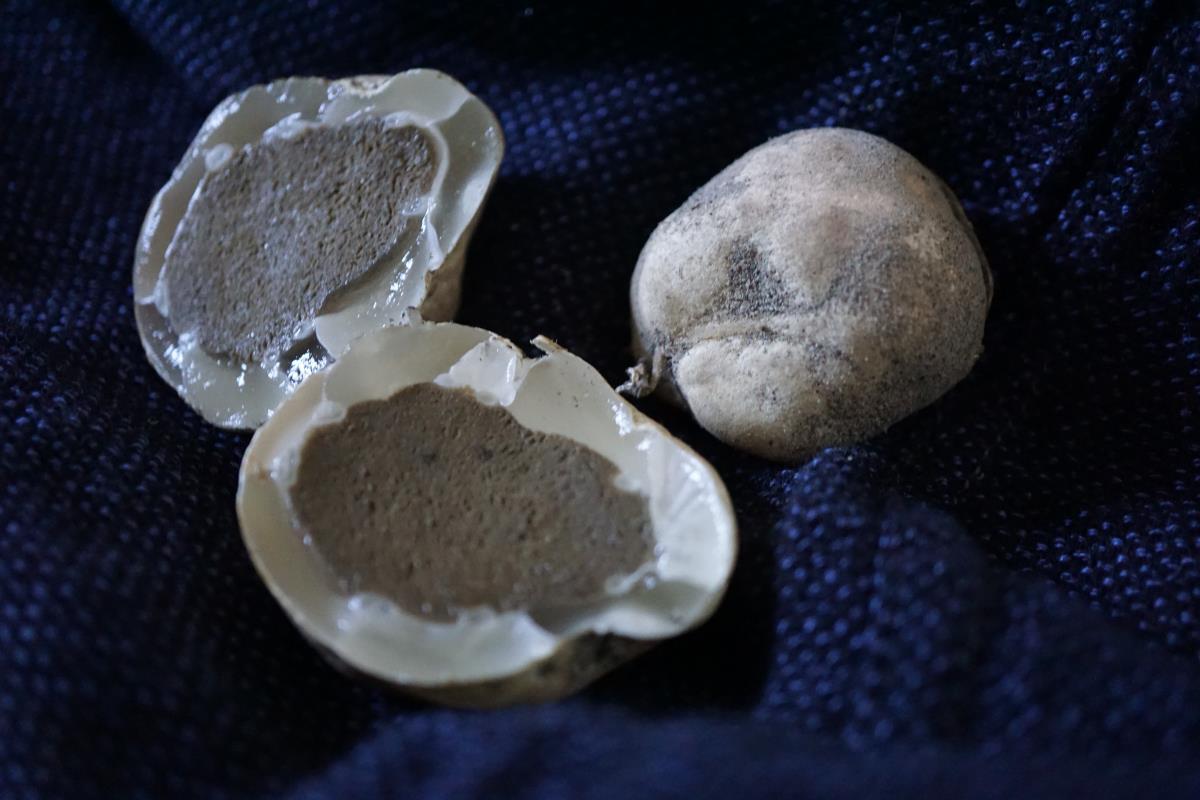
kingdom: Fungi
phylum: Basidiomycota
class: Agaricomycetes
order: Phallales
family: Phallaceae
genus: Ileodictyon
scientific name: Ileodictyon cibarium
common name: Basket fungus
